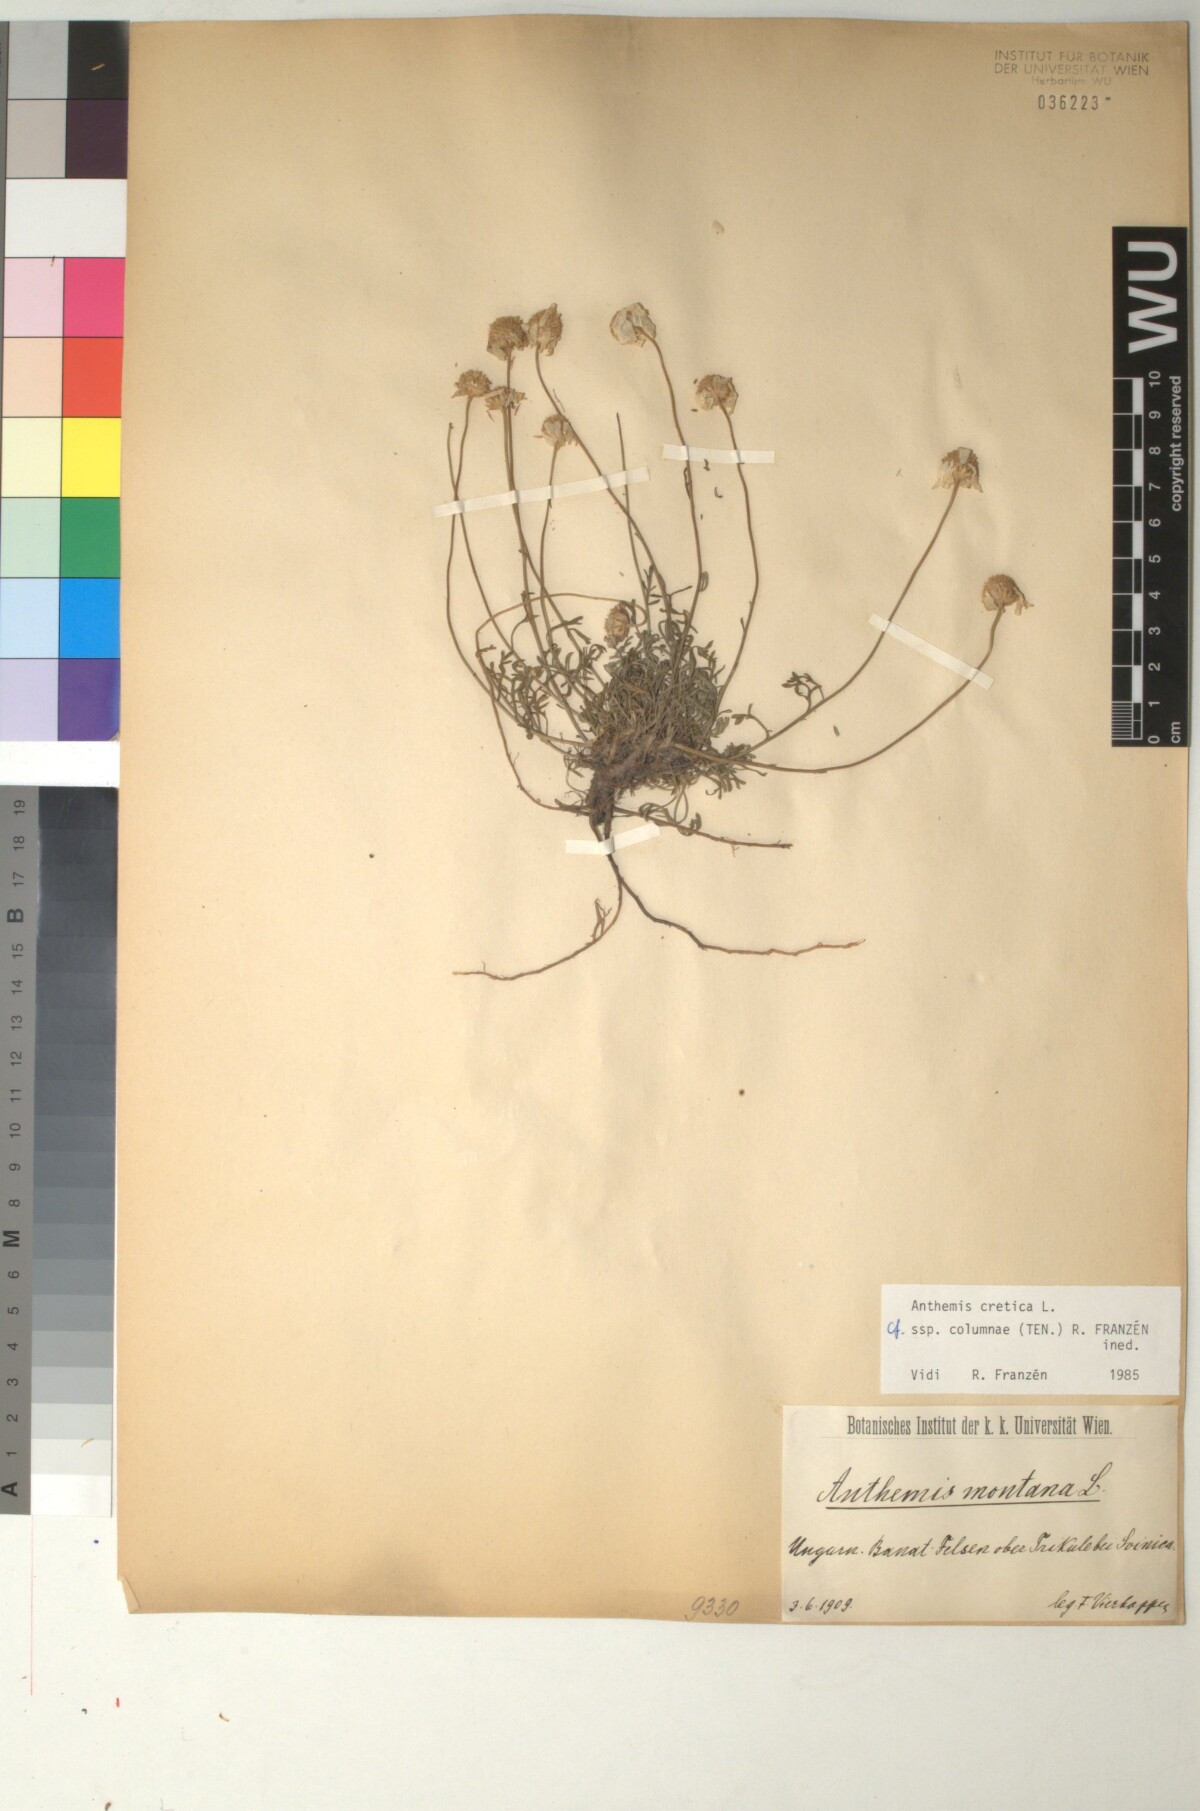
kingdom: Plantae
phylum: Tracheophyta
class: Magnoliopsida
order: Asterales
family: Asteraceae
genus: Anthemis
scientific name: Anthemis cretica
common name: Mountain dog-daisy
